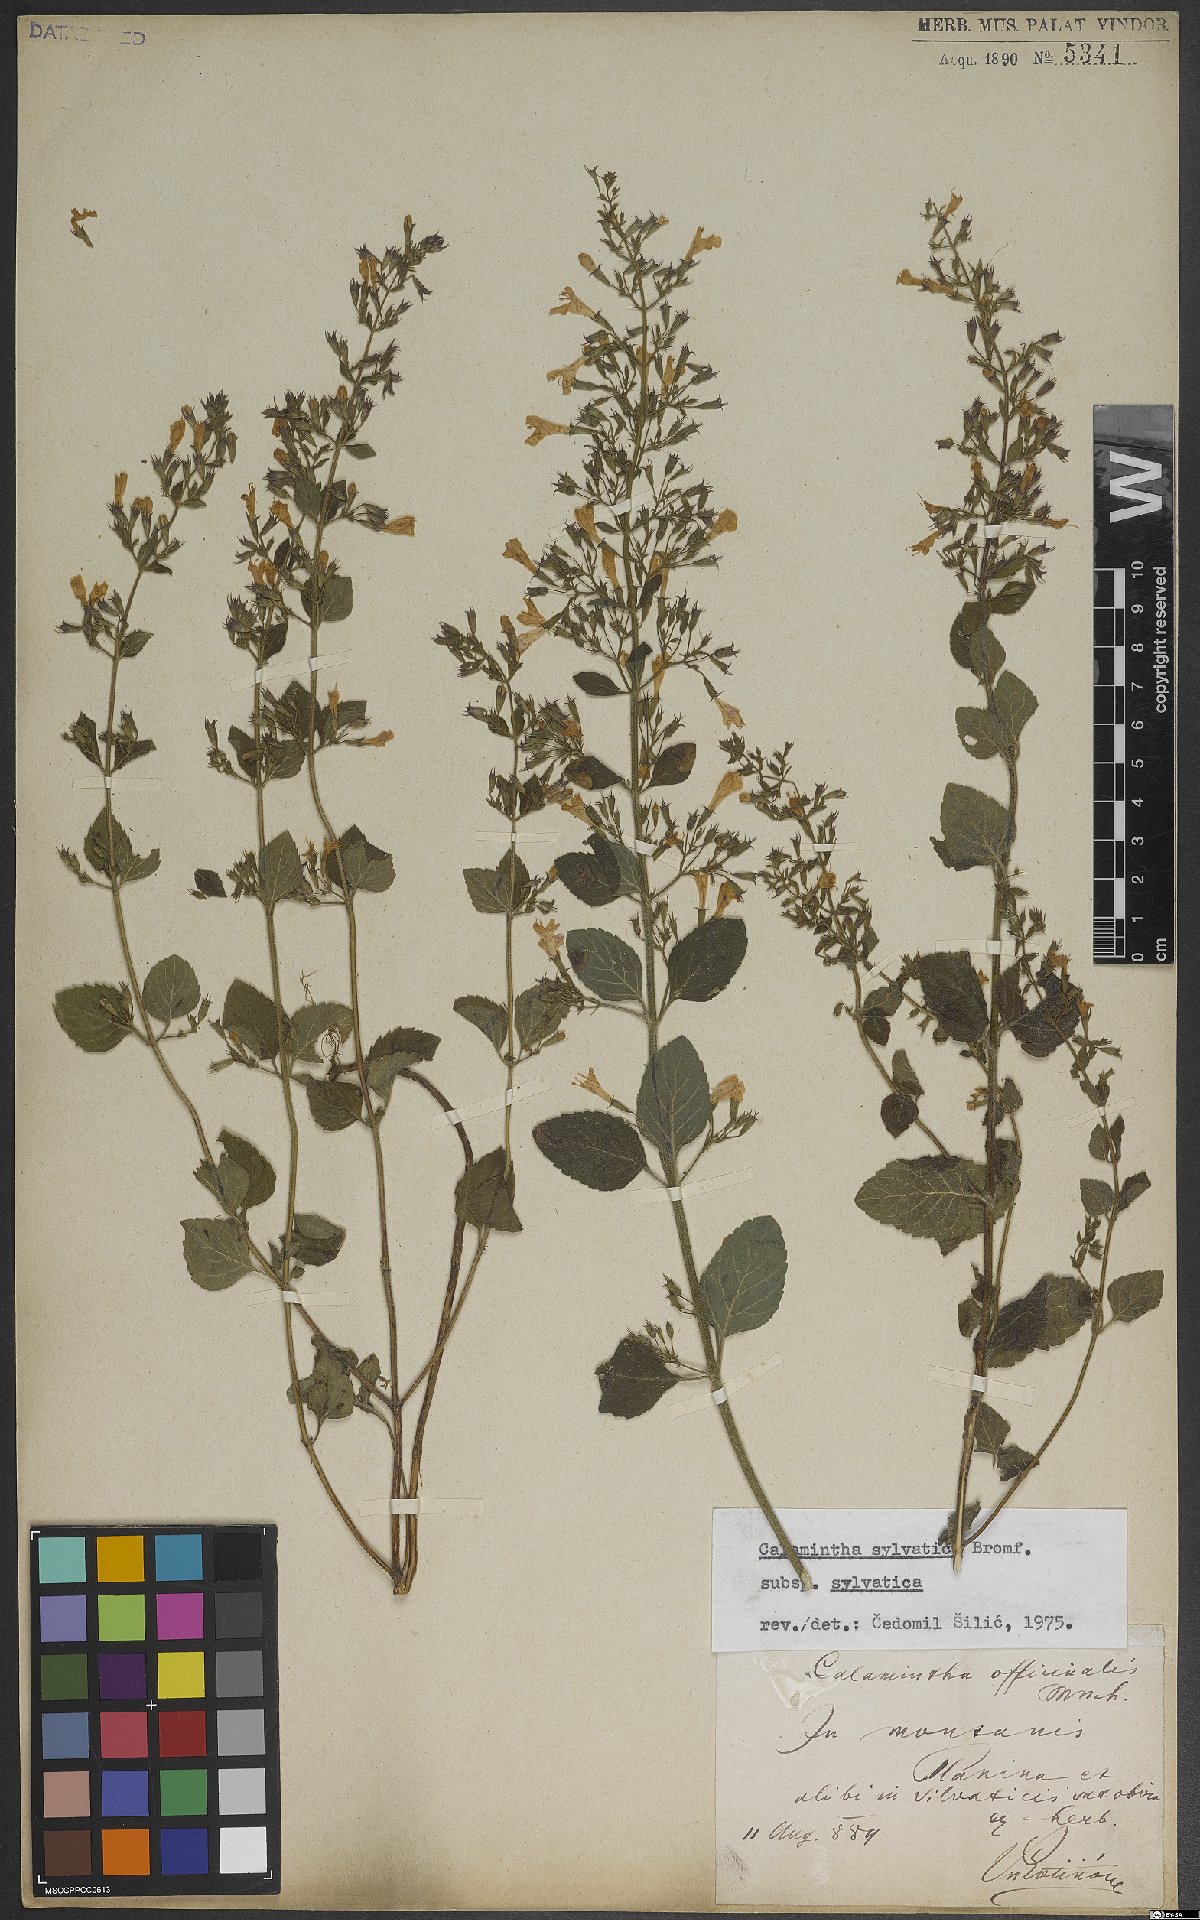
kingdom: Plantae
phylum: Tracheophyta
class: Magnoliopsida
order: Lamiales
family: Lamiaceae
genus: Clinopodium
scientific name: Clinopodium menthifolium
